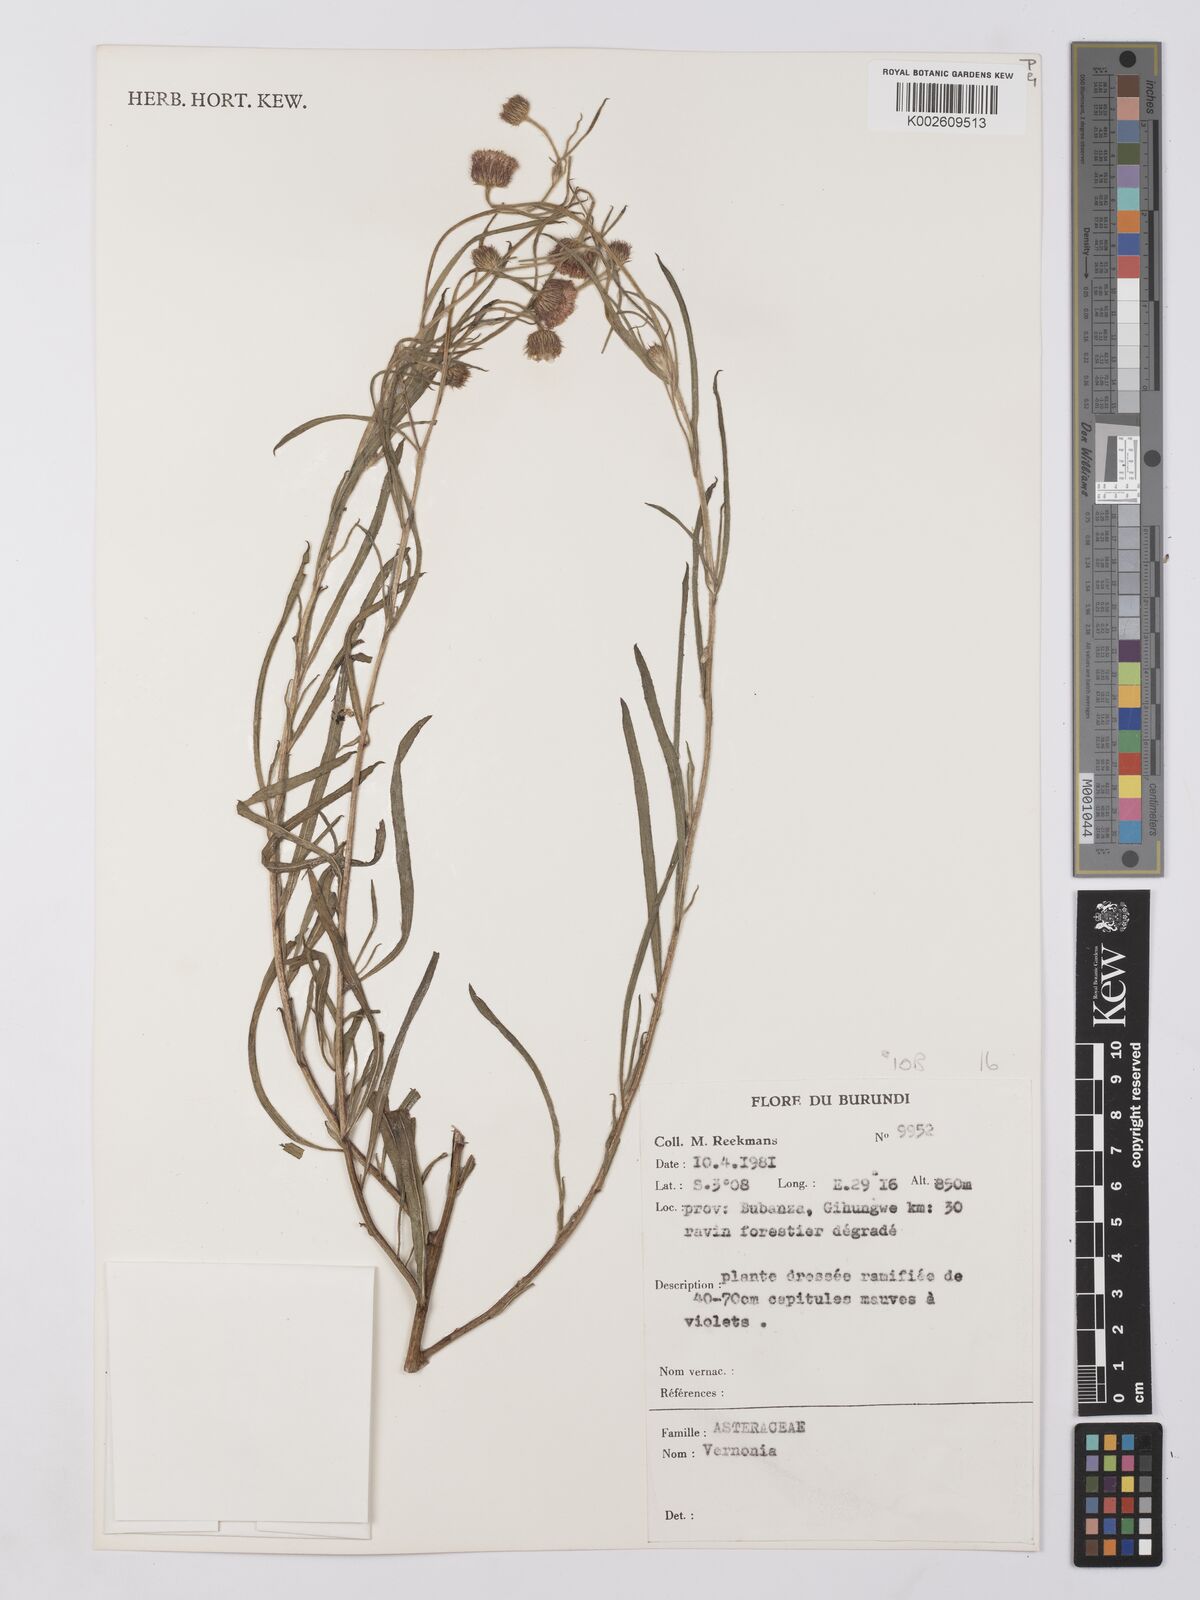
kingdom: Plantae
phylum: Tracheophyta
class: Magnoliopsida
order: Asterales
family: Asteraceae
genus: Vernonia
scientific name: Vernonia
